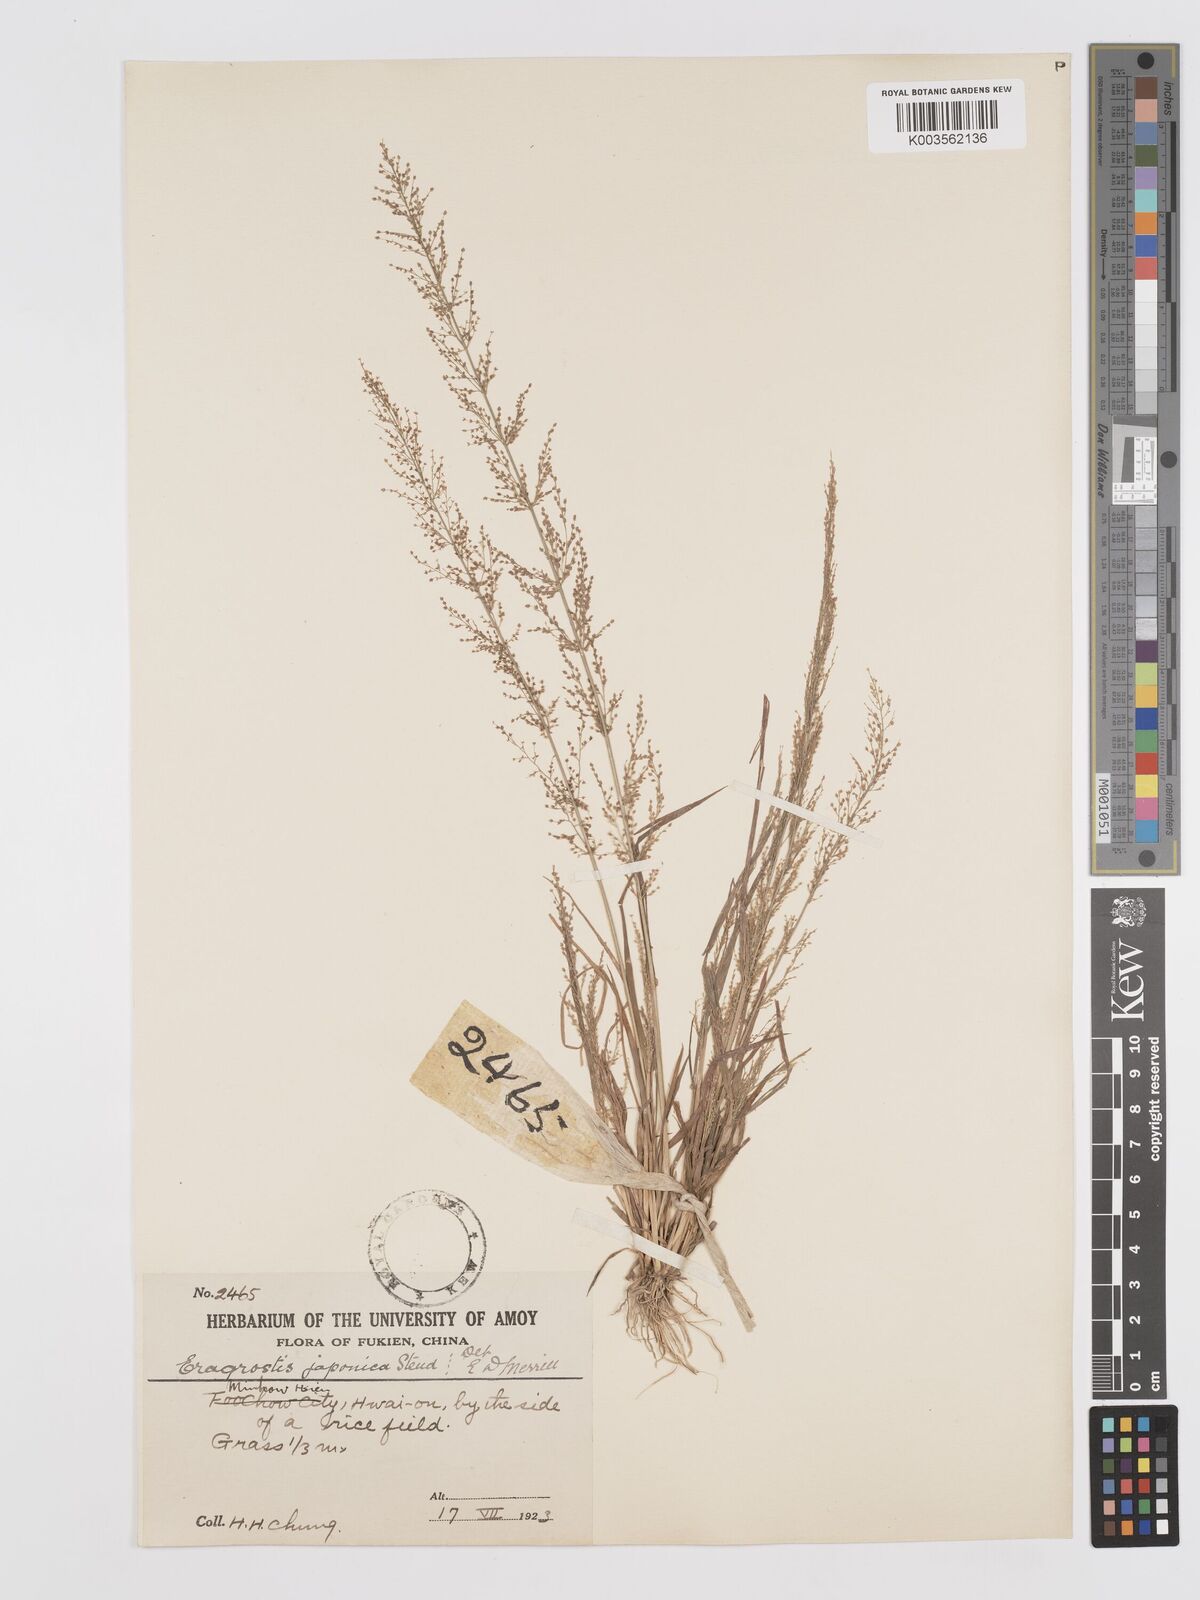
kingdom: Plantae
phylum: Tracheophyta
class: Liliopsida
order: Poales
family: Poaceae
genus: Eragrostis
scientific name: Eragrostis japonica
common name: Pond lovegrass
